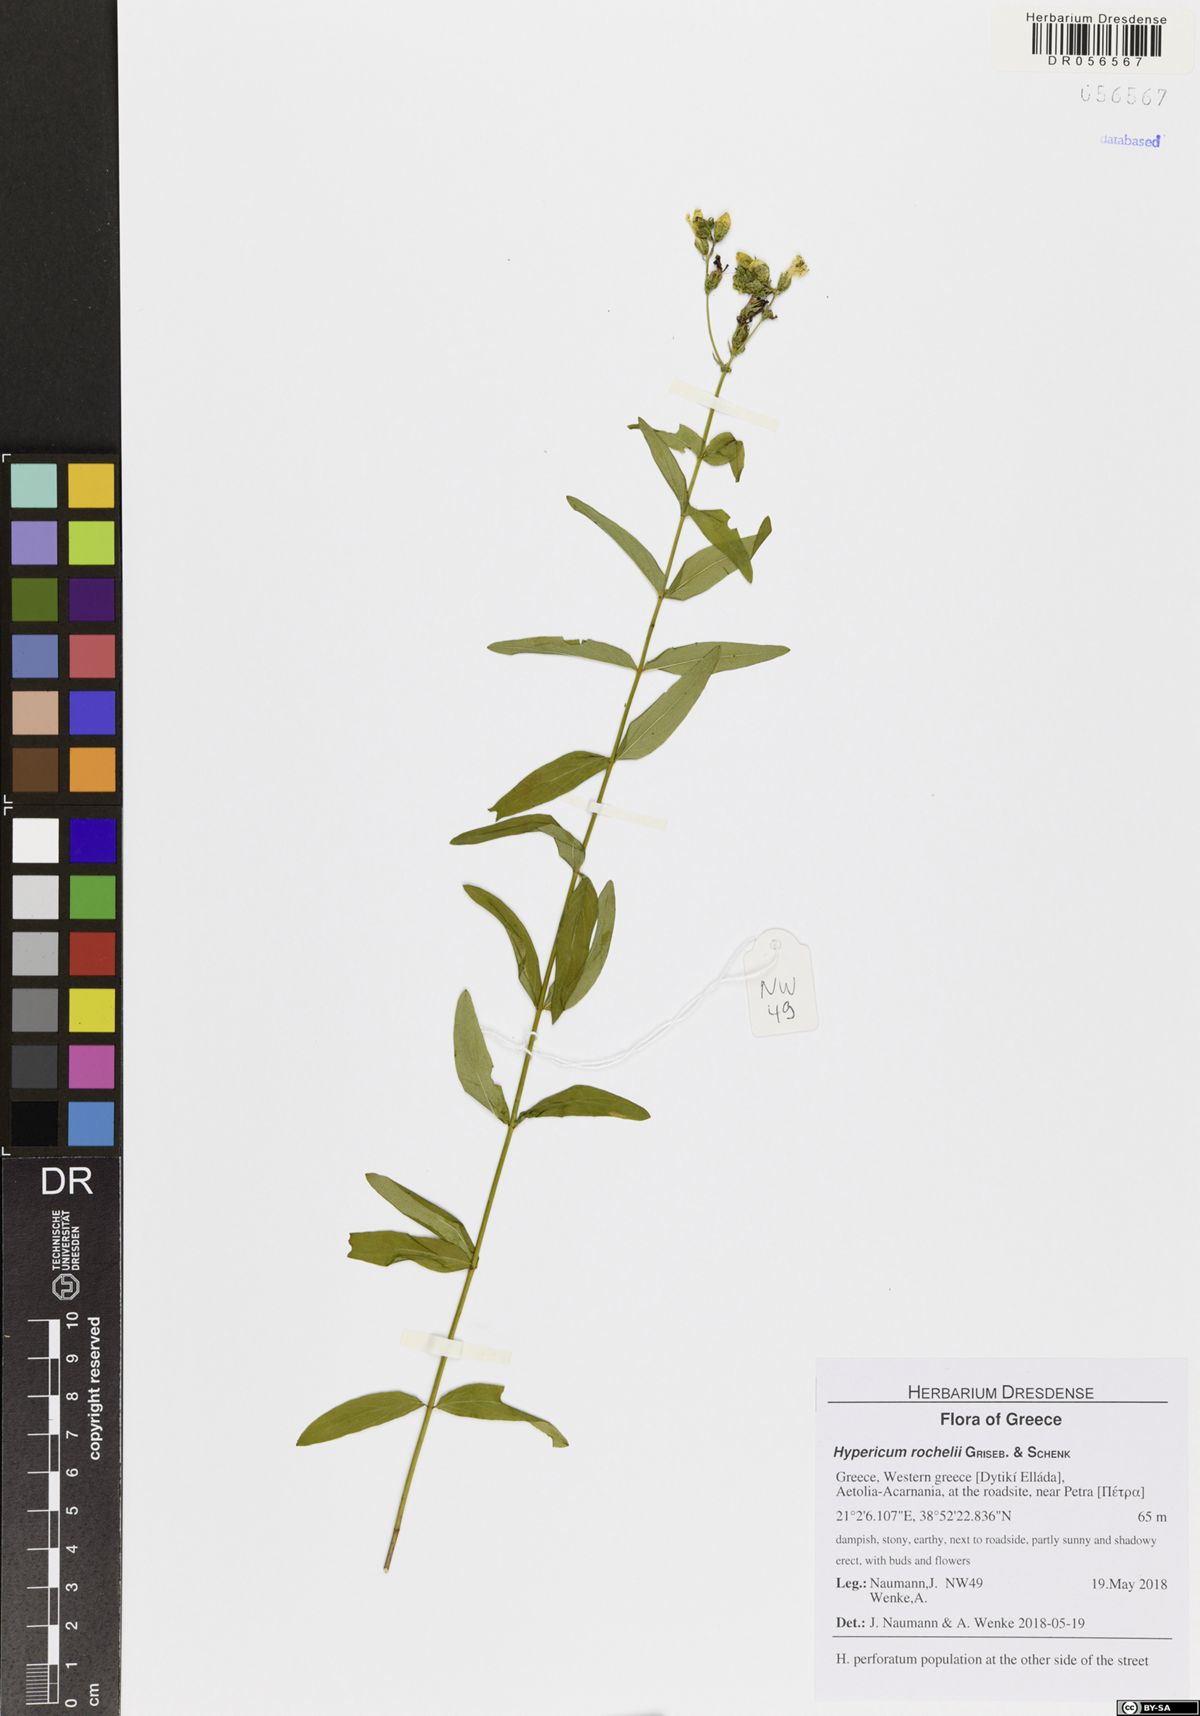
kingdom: Plantae
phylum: Tracheophyta
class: Magnoliopsida
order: Malpighiales
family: Hypericaceae
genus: Hypericum
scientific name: Hypericum rochelii
